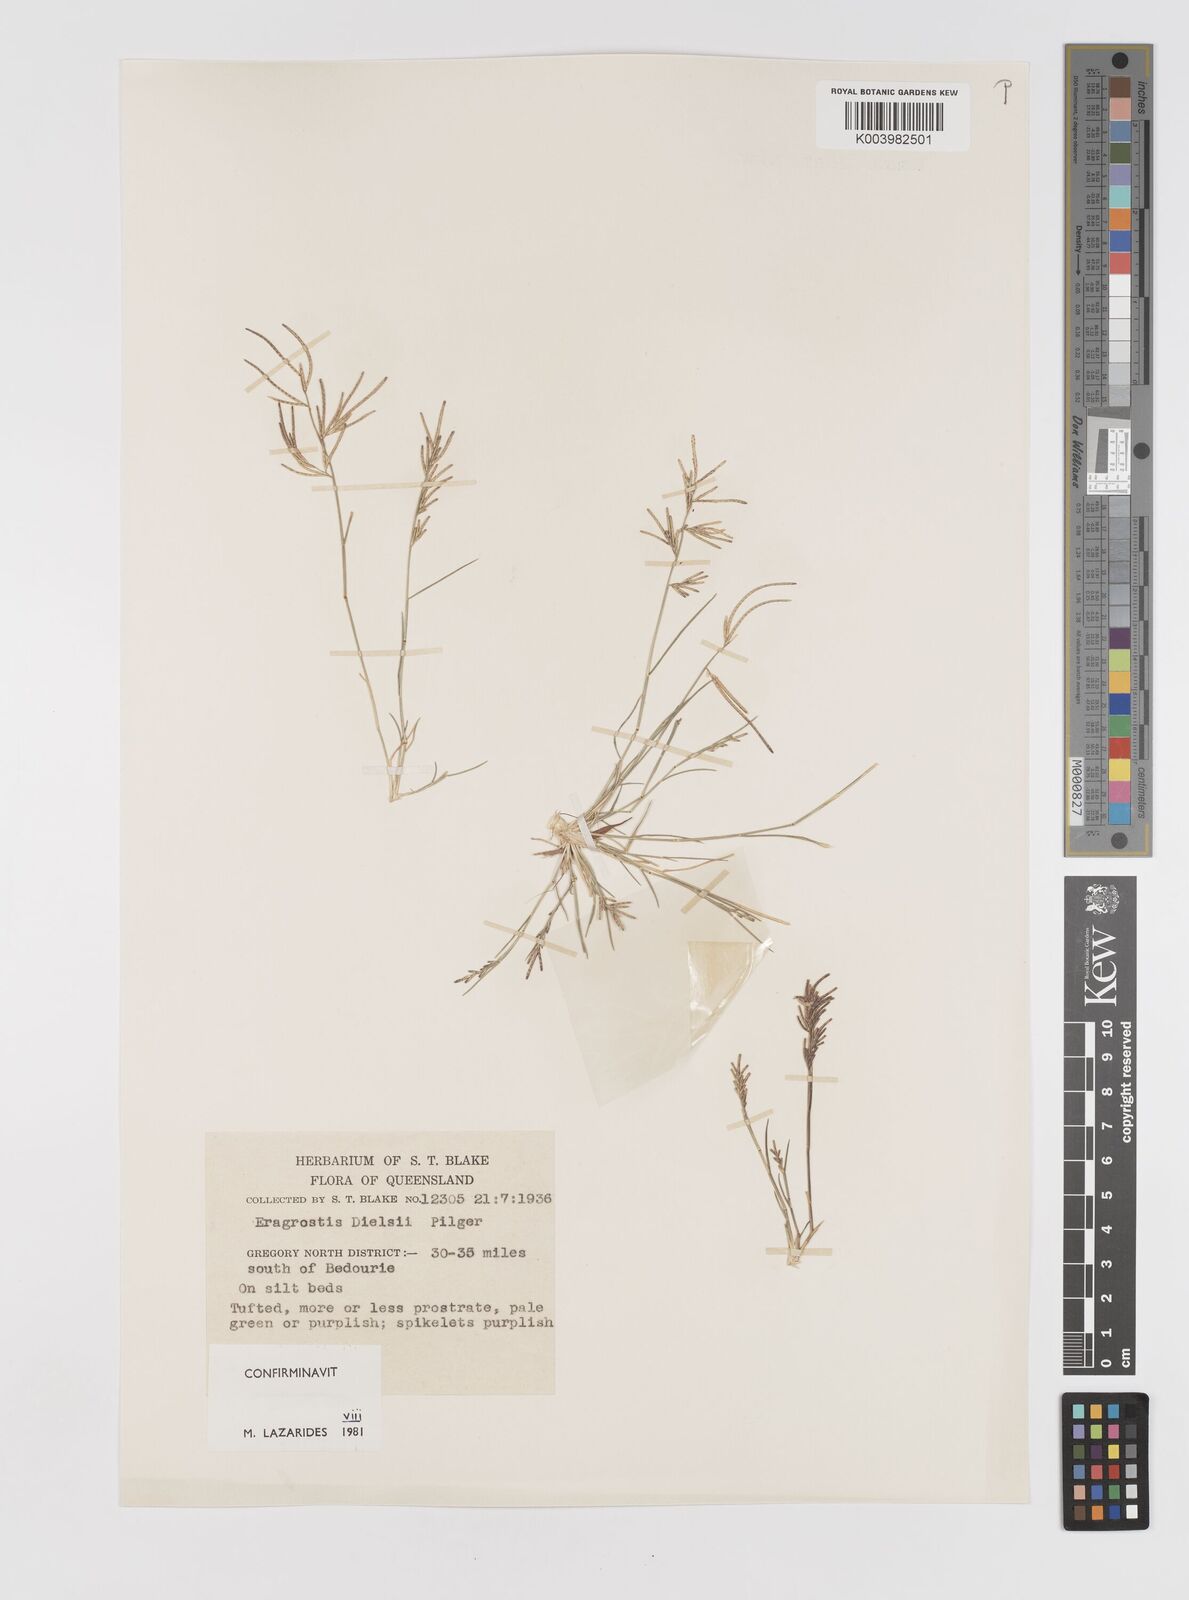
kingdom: Plantae
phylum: Tracheophyta
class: Liliopsida
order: Poales
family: Poaceae
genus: Eragrostis
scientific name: Eragrostis dielsii
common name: Lovegrass
